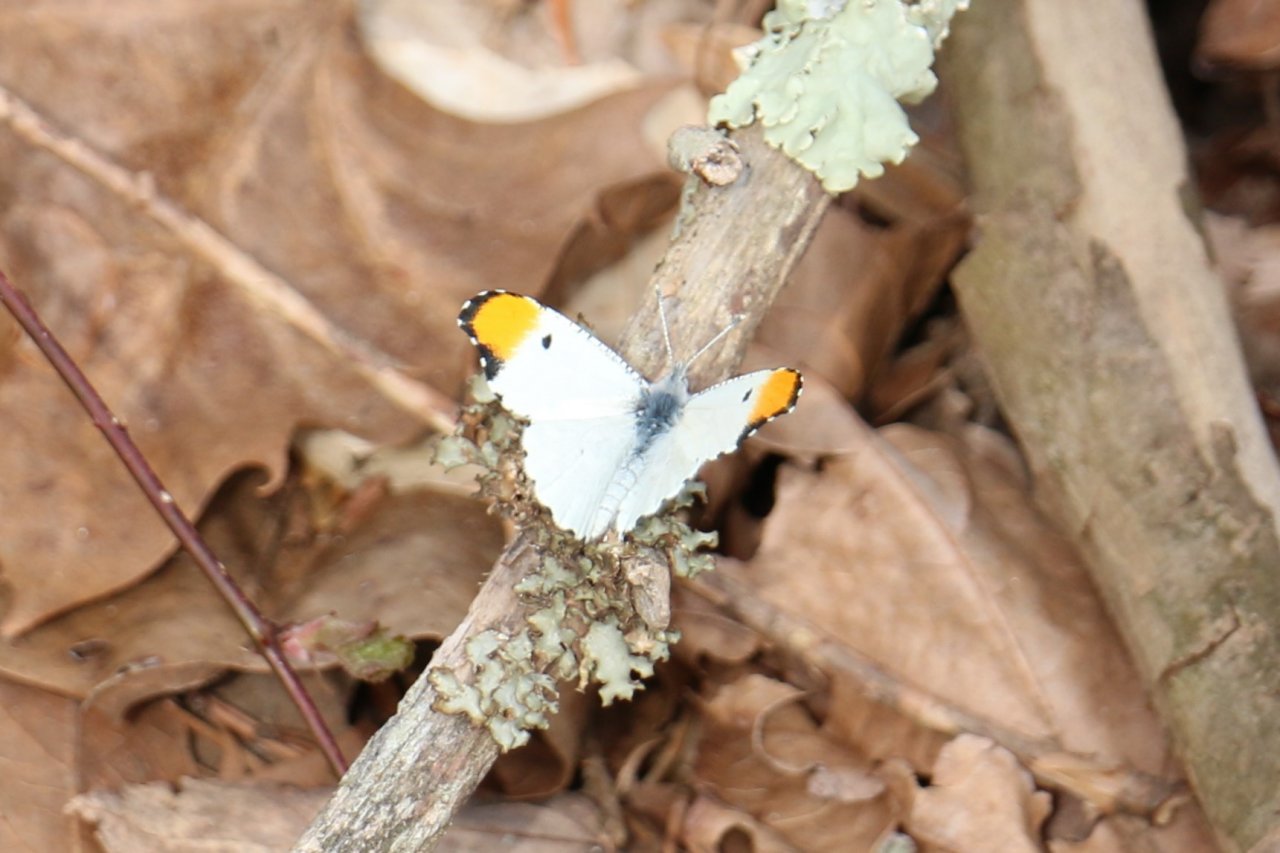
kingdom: Animalia
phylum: Arthropoda
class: Insecta
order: Lepidoptera
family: Pieridae
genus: Anthocharis
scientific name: Anthocharis midea
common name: Falcate Orangetip
